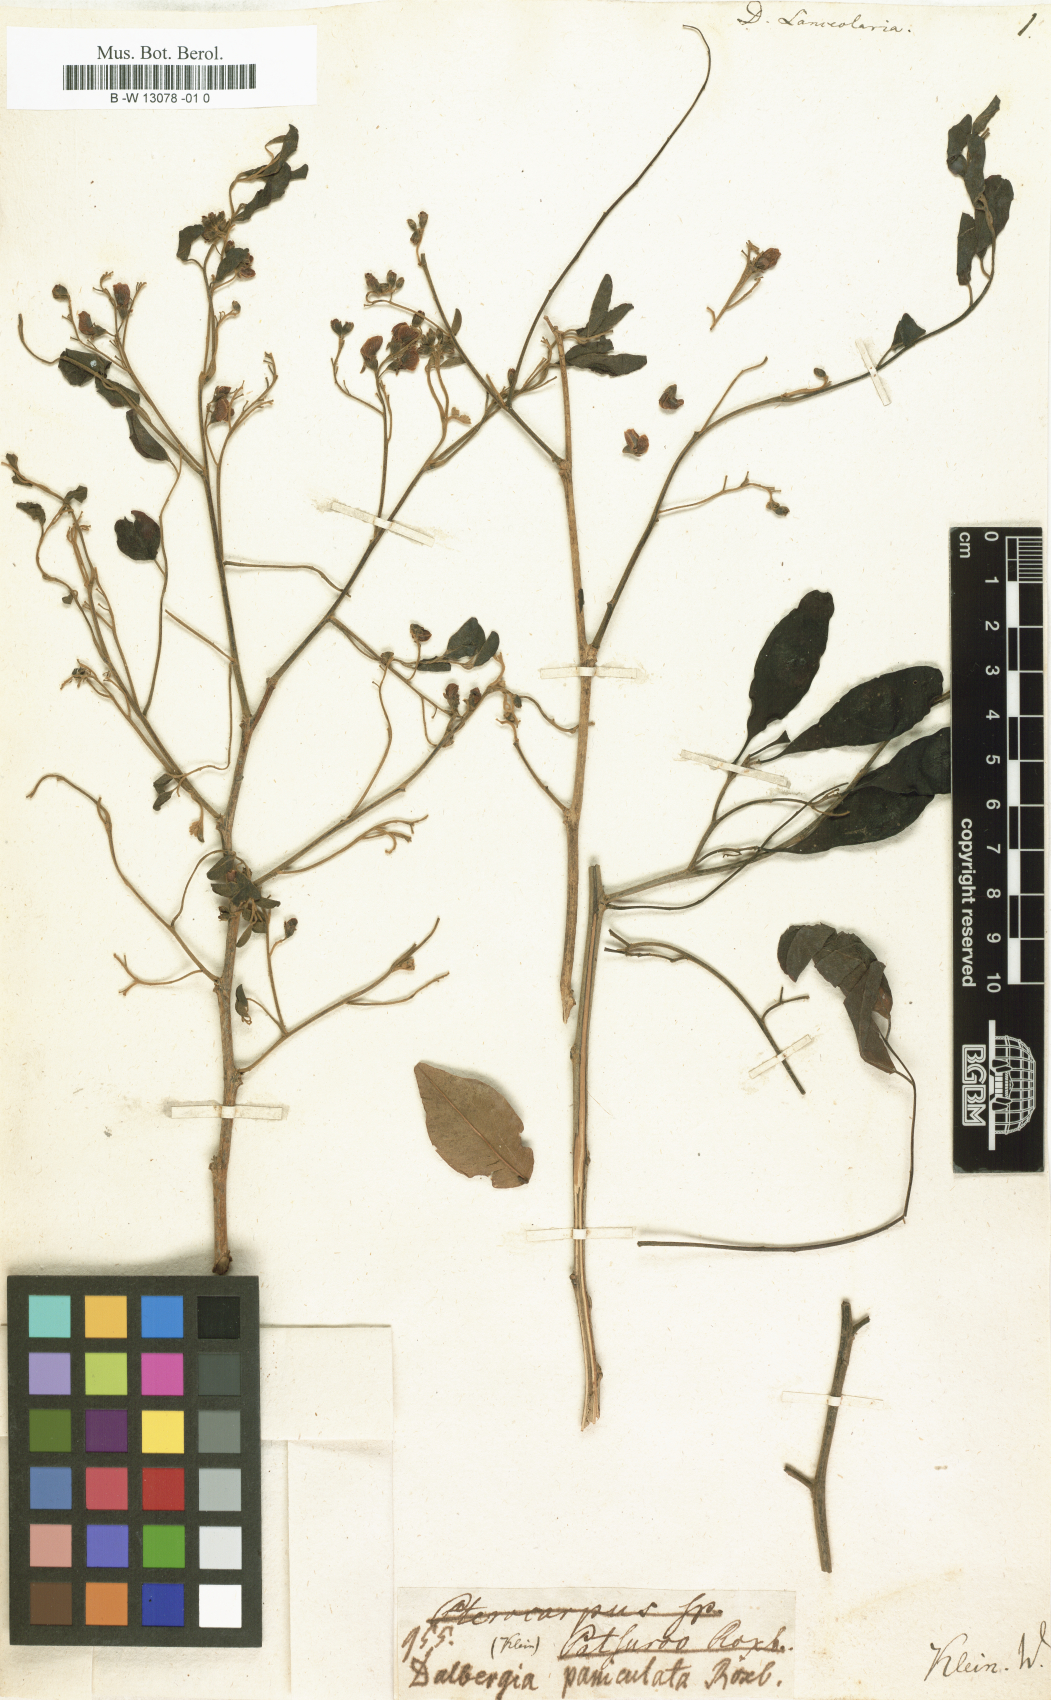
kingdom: Plantae
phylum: Tracheophyta
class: Magnoliopsida
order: Fabales
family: Fabaceae
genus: Dalbergia
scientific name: Dalbergia lanceolaria
